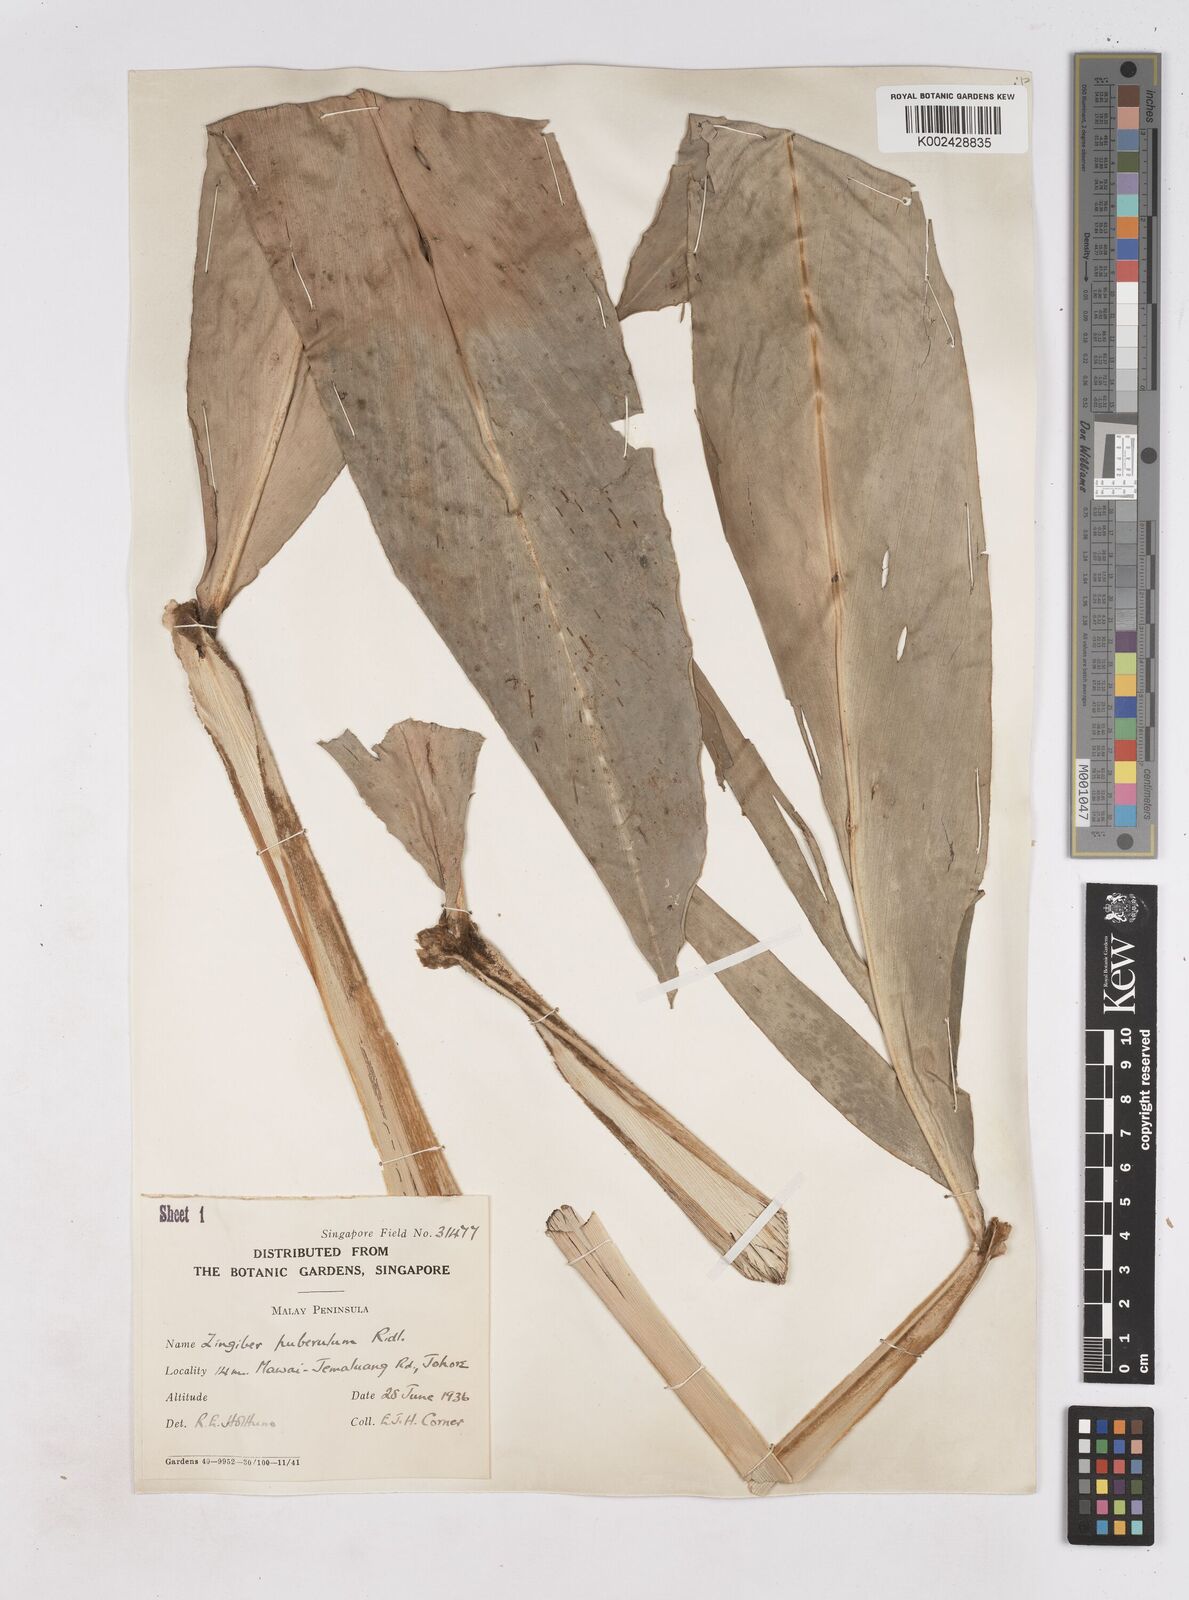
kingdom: Plantae
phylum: Tracheophyta
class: Liliopsida
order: Zingiberales
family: Zingiberaceae
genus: Zingiber
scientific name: Zingiber puberulum
